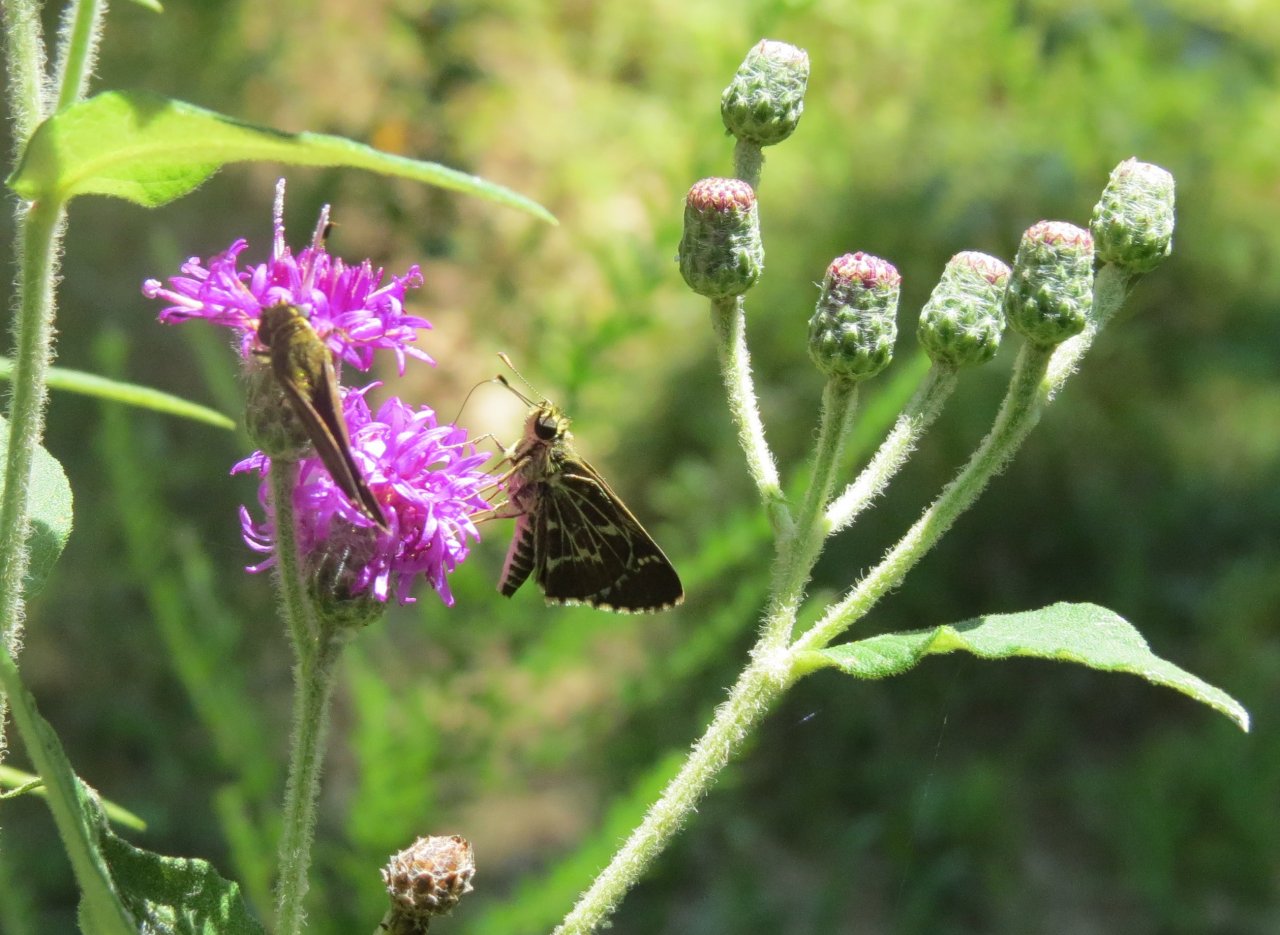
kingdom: Animalia
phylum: Arthropoda
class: Insecta
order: Lepidoptera
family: Hesperiidae
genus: Mastor
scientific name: Mastor aesculapius
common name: Lace-winged Roadside-Skipper
